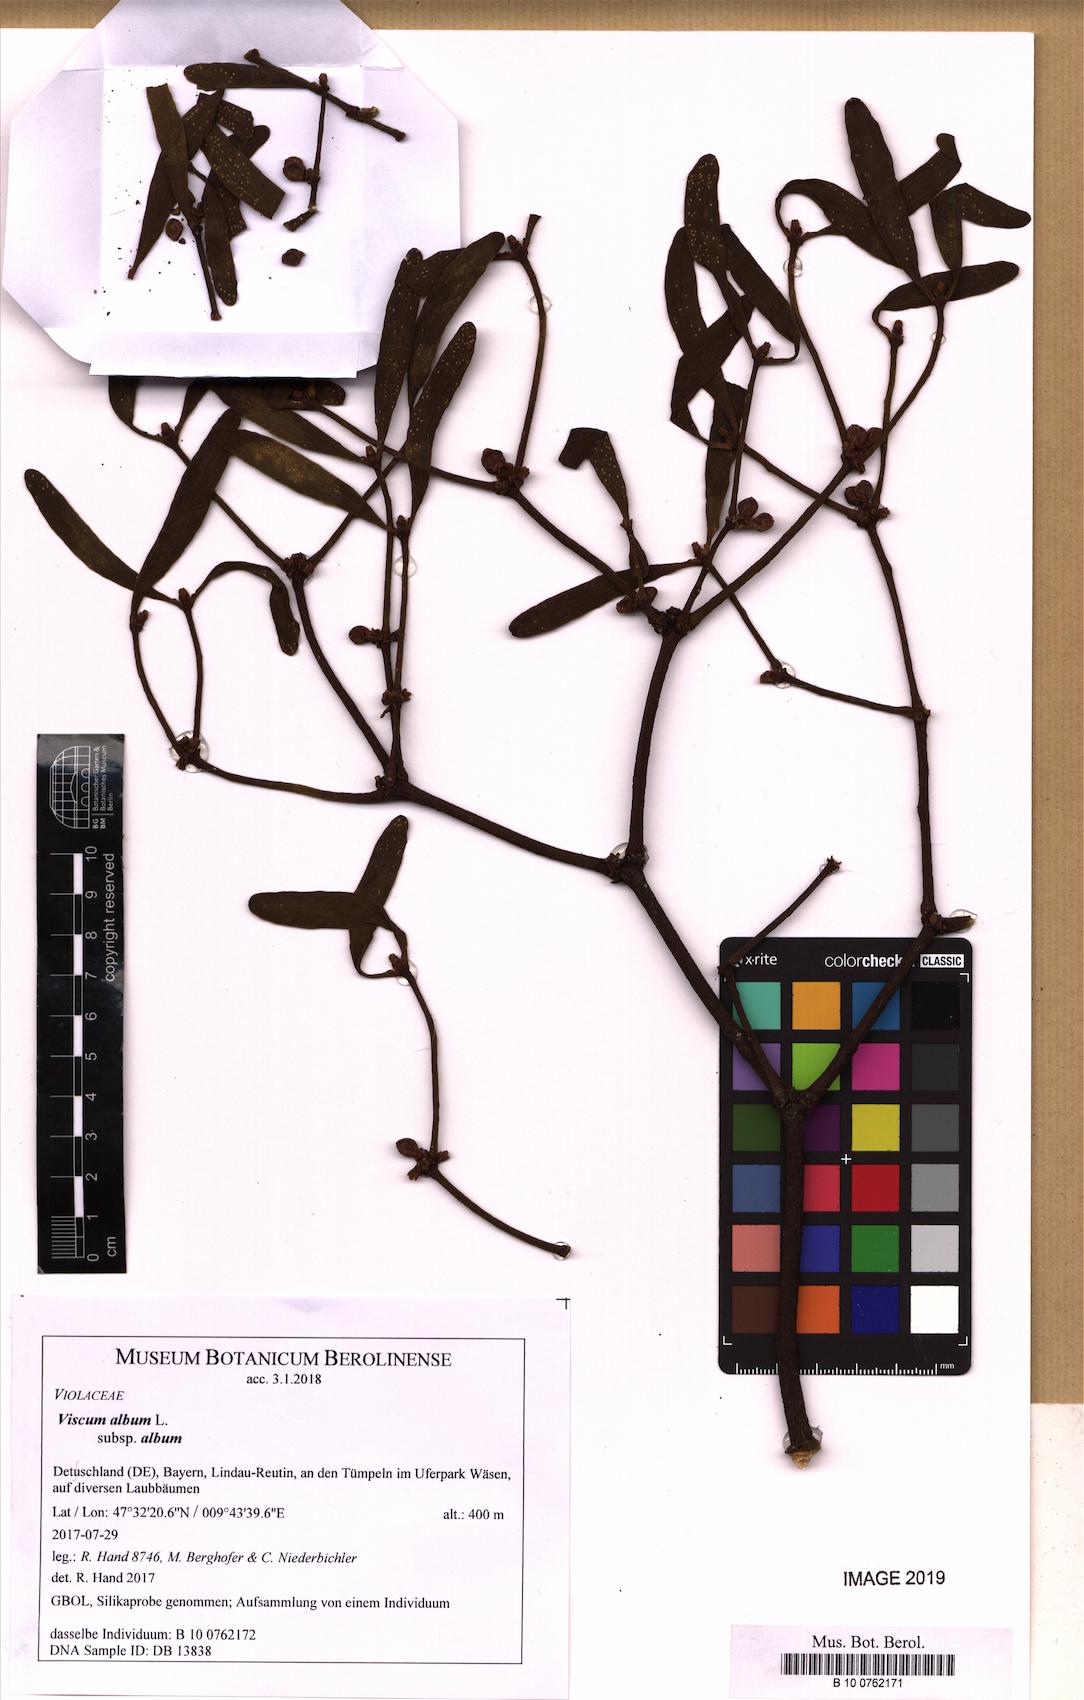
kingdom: Plantae
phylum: Tracheophyta
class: Magnoliopsida
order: Santalales
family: Viscaceae
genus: Viscum
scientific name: Viscum album
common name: Mistletoe
